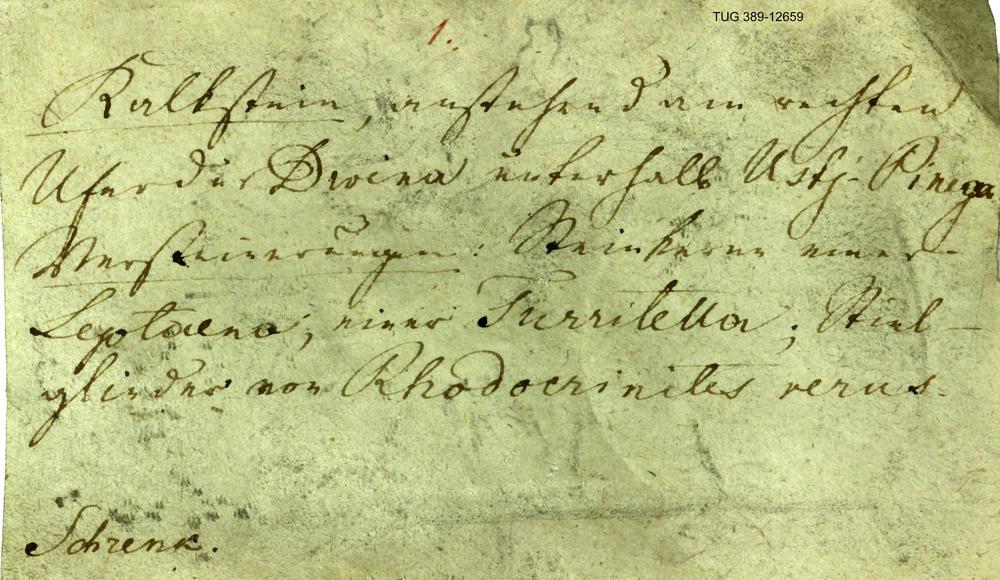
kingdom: Animalia
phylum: Brachiopoda
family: Strophomenidae
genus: Leptaena
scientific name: Leptaena
